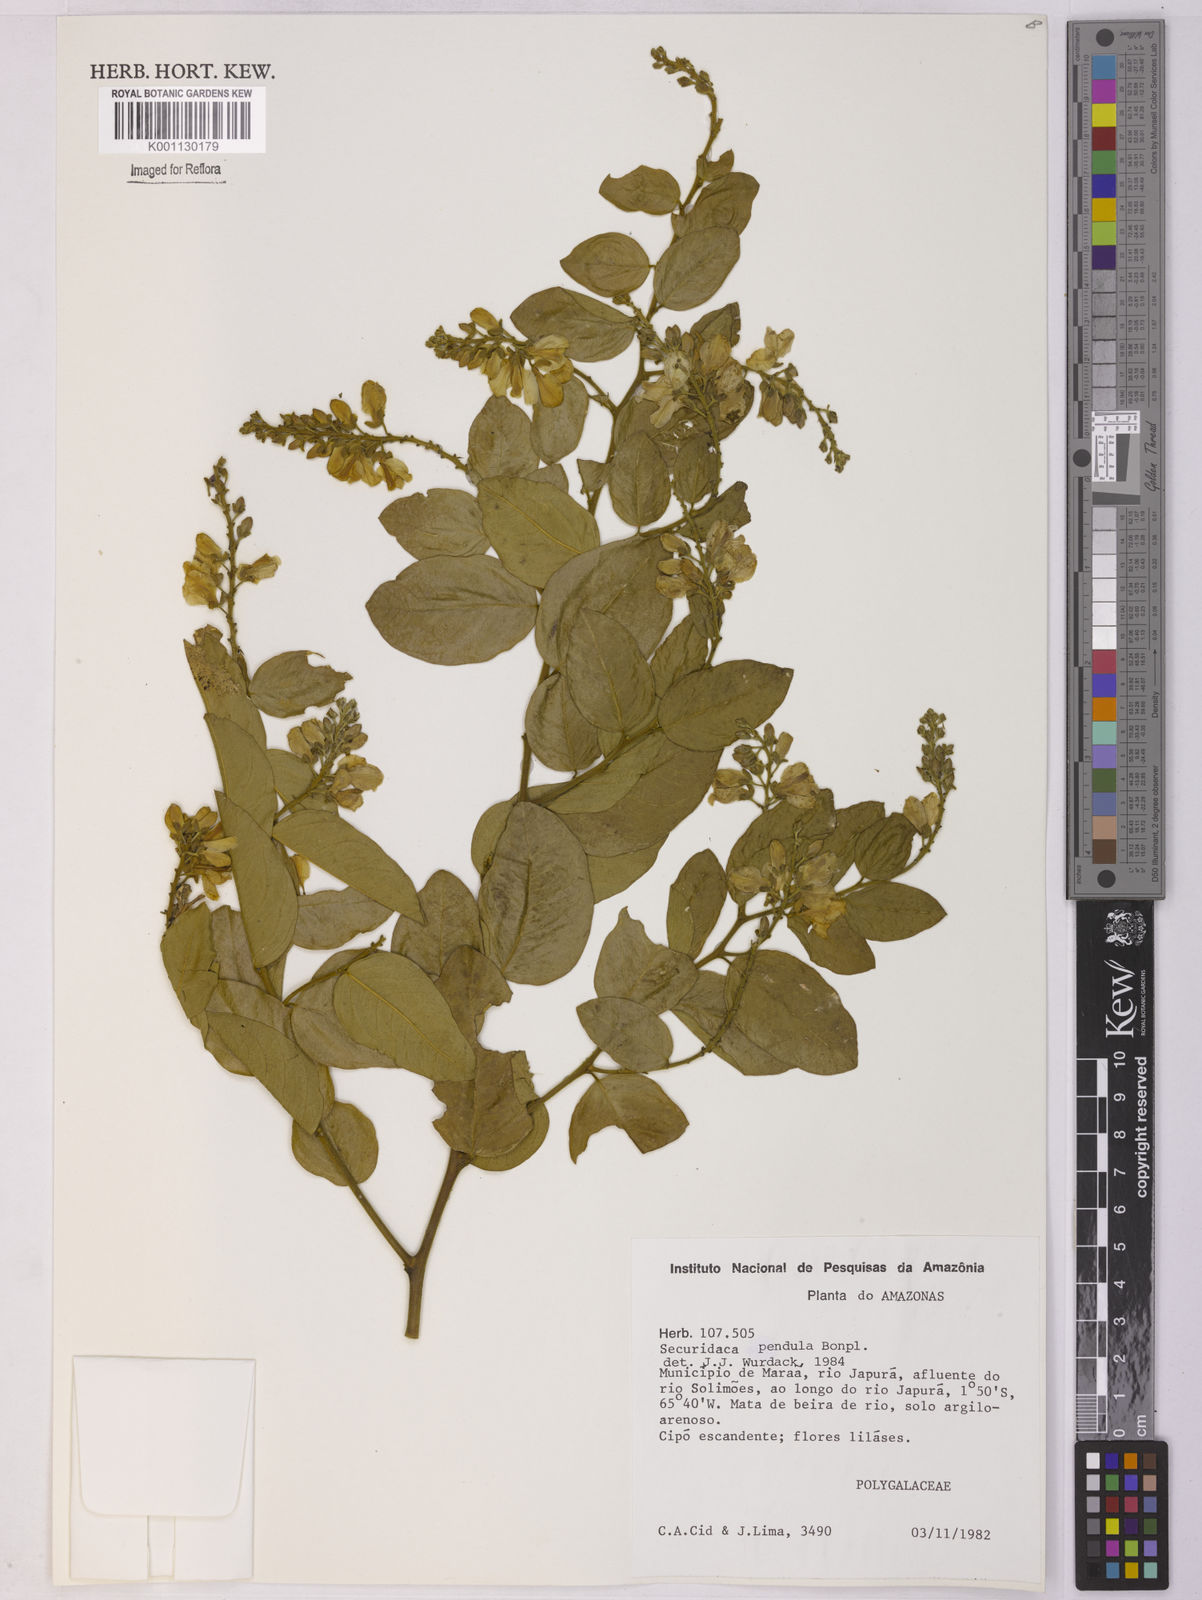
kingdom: Plantae
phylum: Tracheophyta
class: Magnoliopsida
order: Fabales
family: Polygalaceae
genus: Securidaca
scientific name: Securidaca pendula
